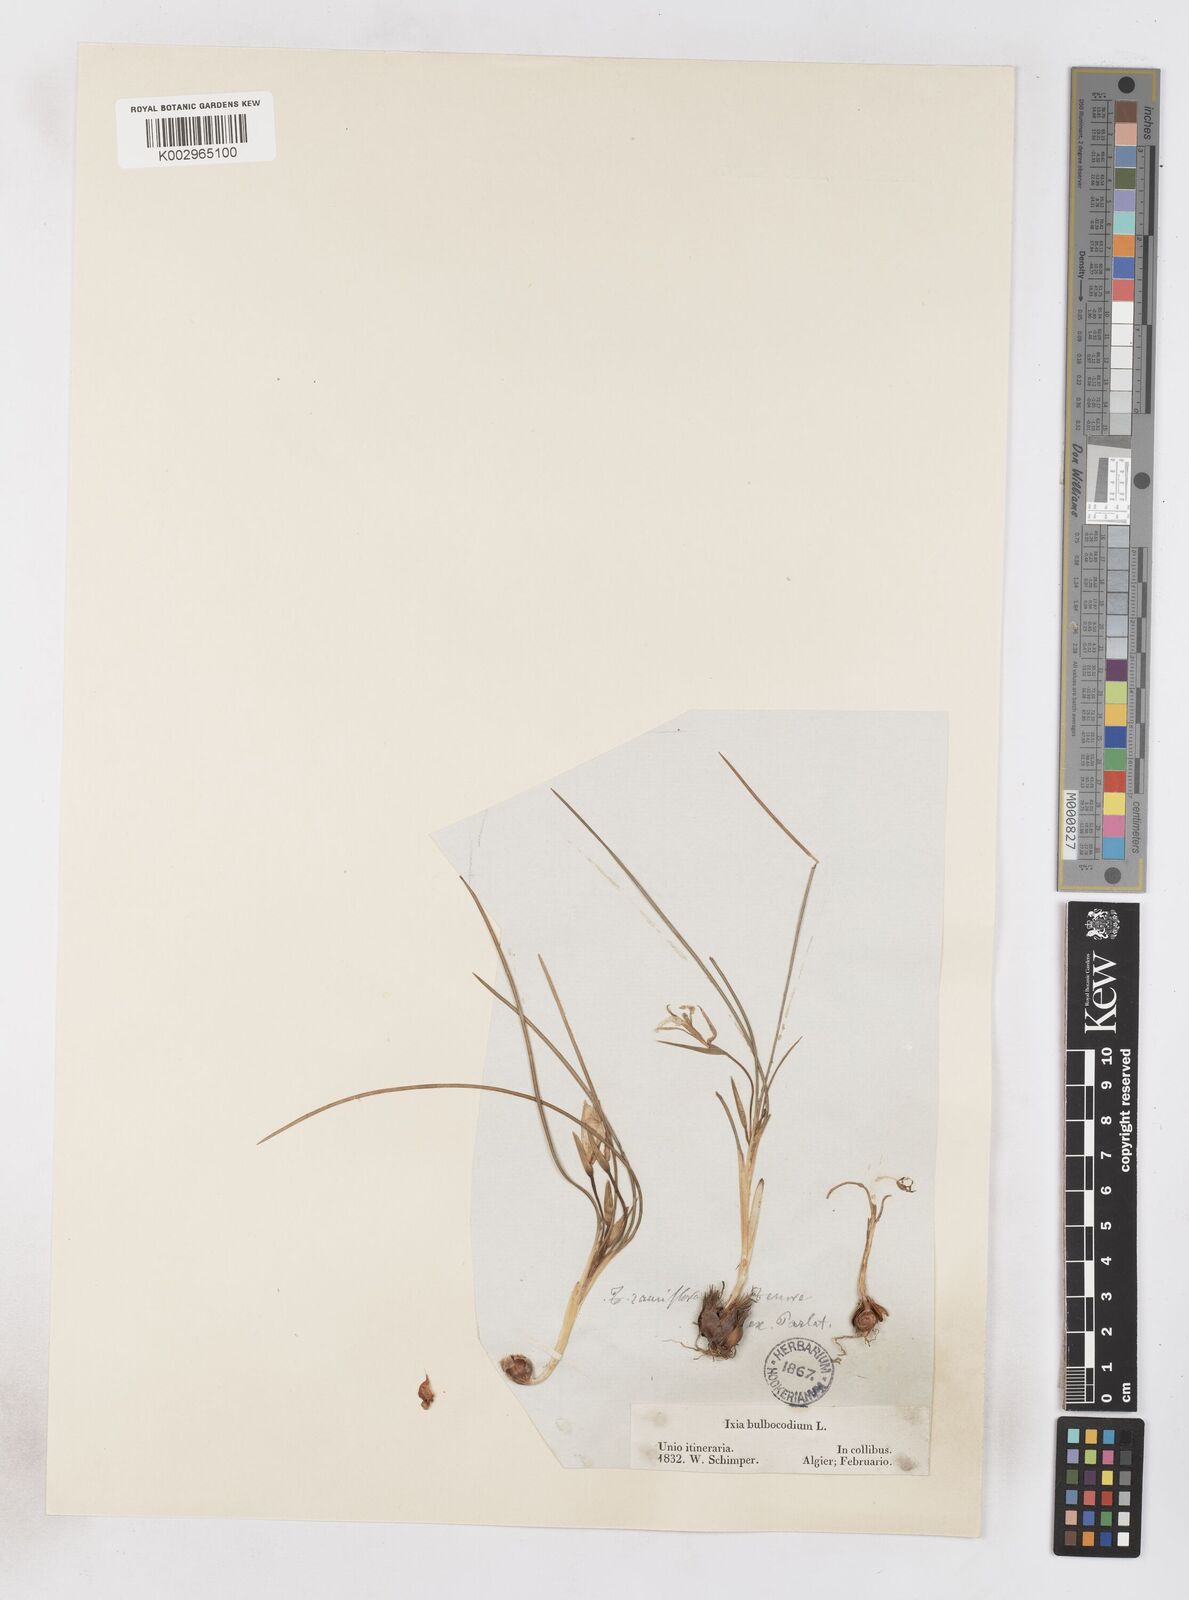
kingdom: Plantae
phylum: Tracheophyta
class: Liliopsida
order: Asparagales
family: Iridaceae
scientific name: Iridaceae
